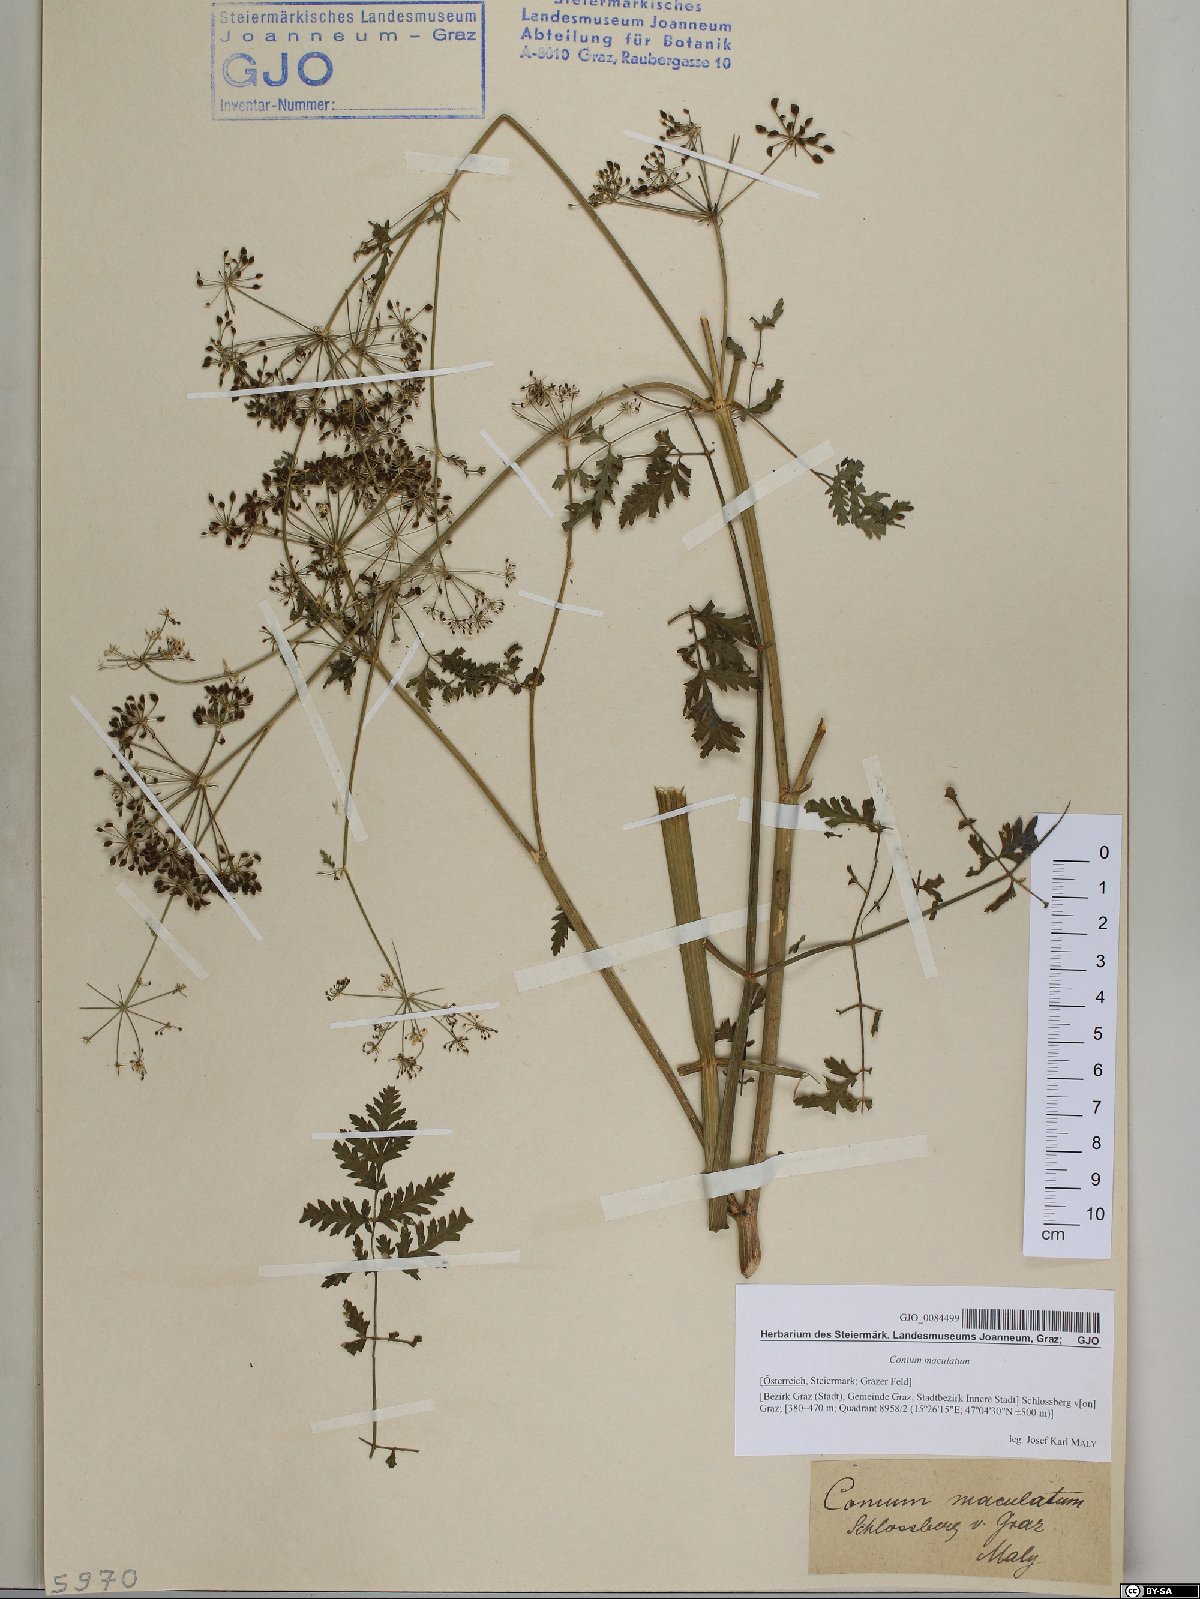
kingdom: Plantae
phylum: Tracheophyta
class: Magnoliopsida
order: Apiales
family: Apiaceae
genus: Conium
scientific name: Conium maculatum
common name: Hemlock
